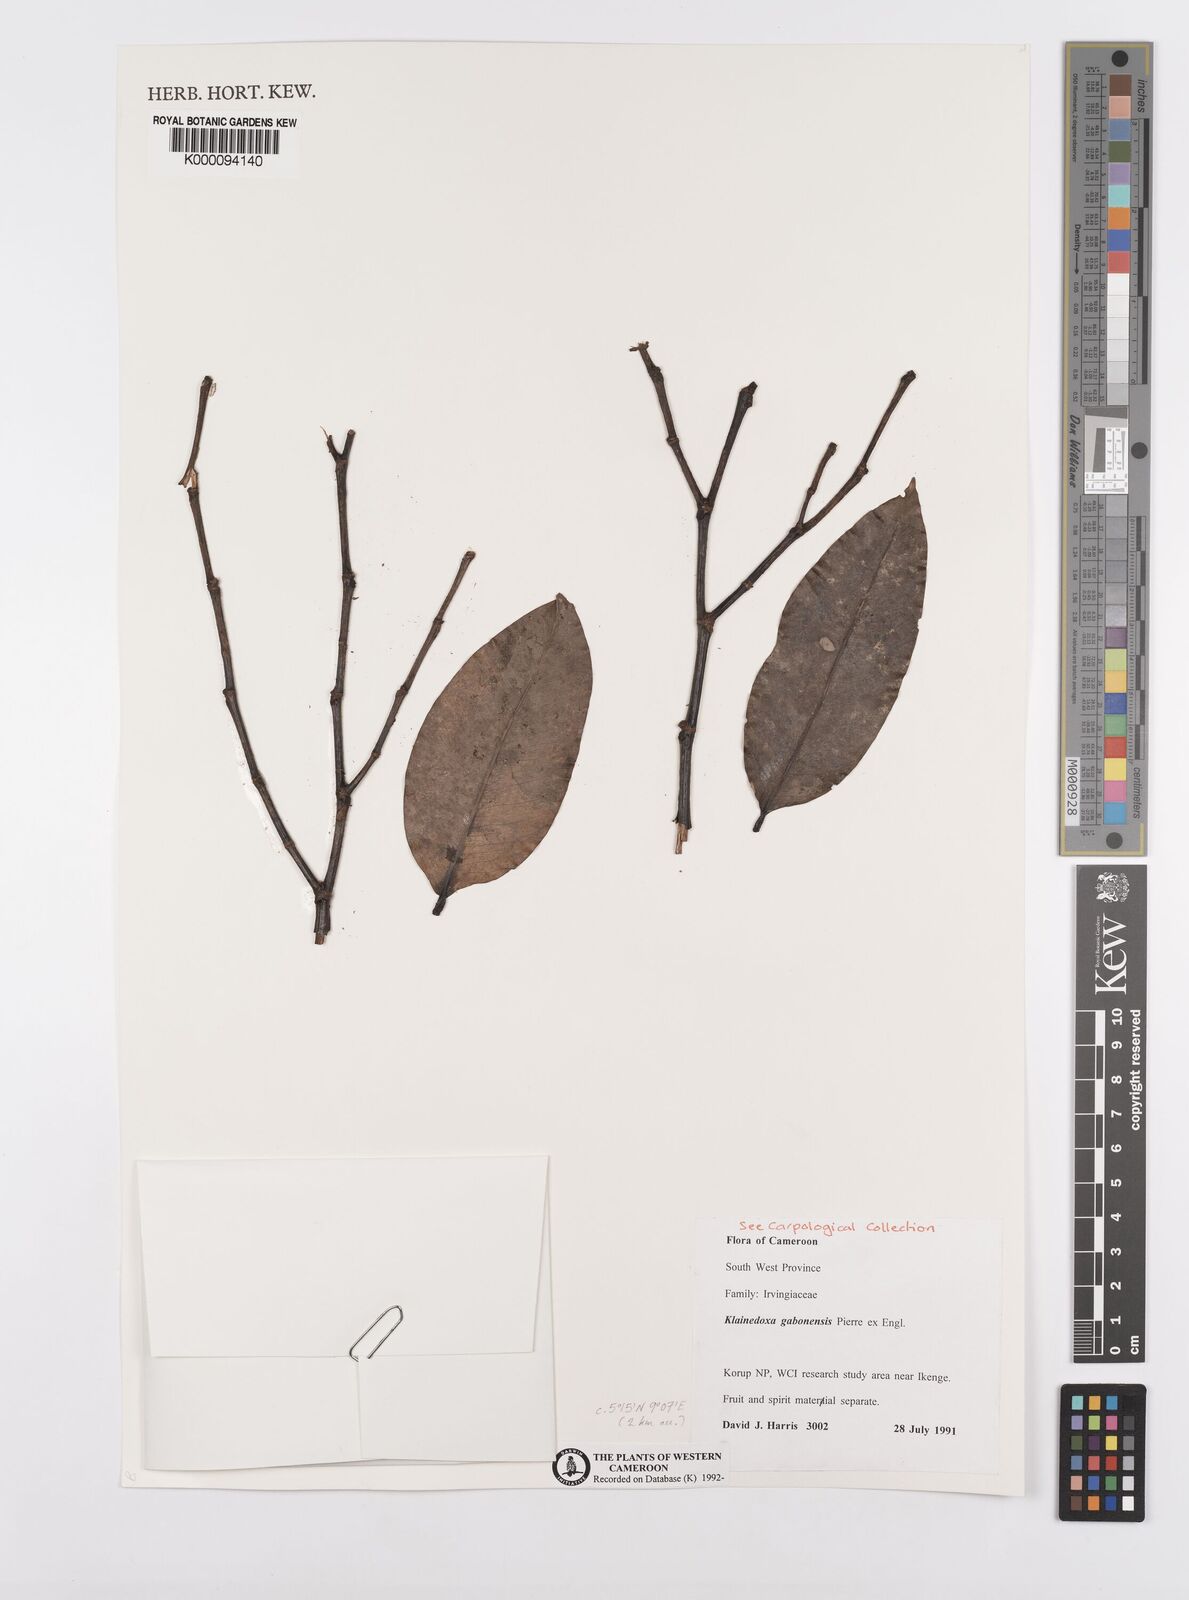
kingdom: Plantae
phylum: Tracheophyta
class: Magnoliopsida
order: Malpighiales
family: Irvingiaceae
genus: Klainedoxa
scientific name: Klainedoxa gabonensis
